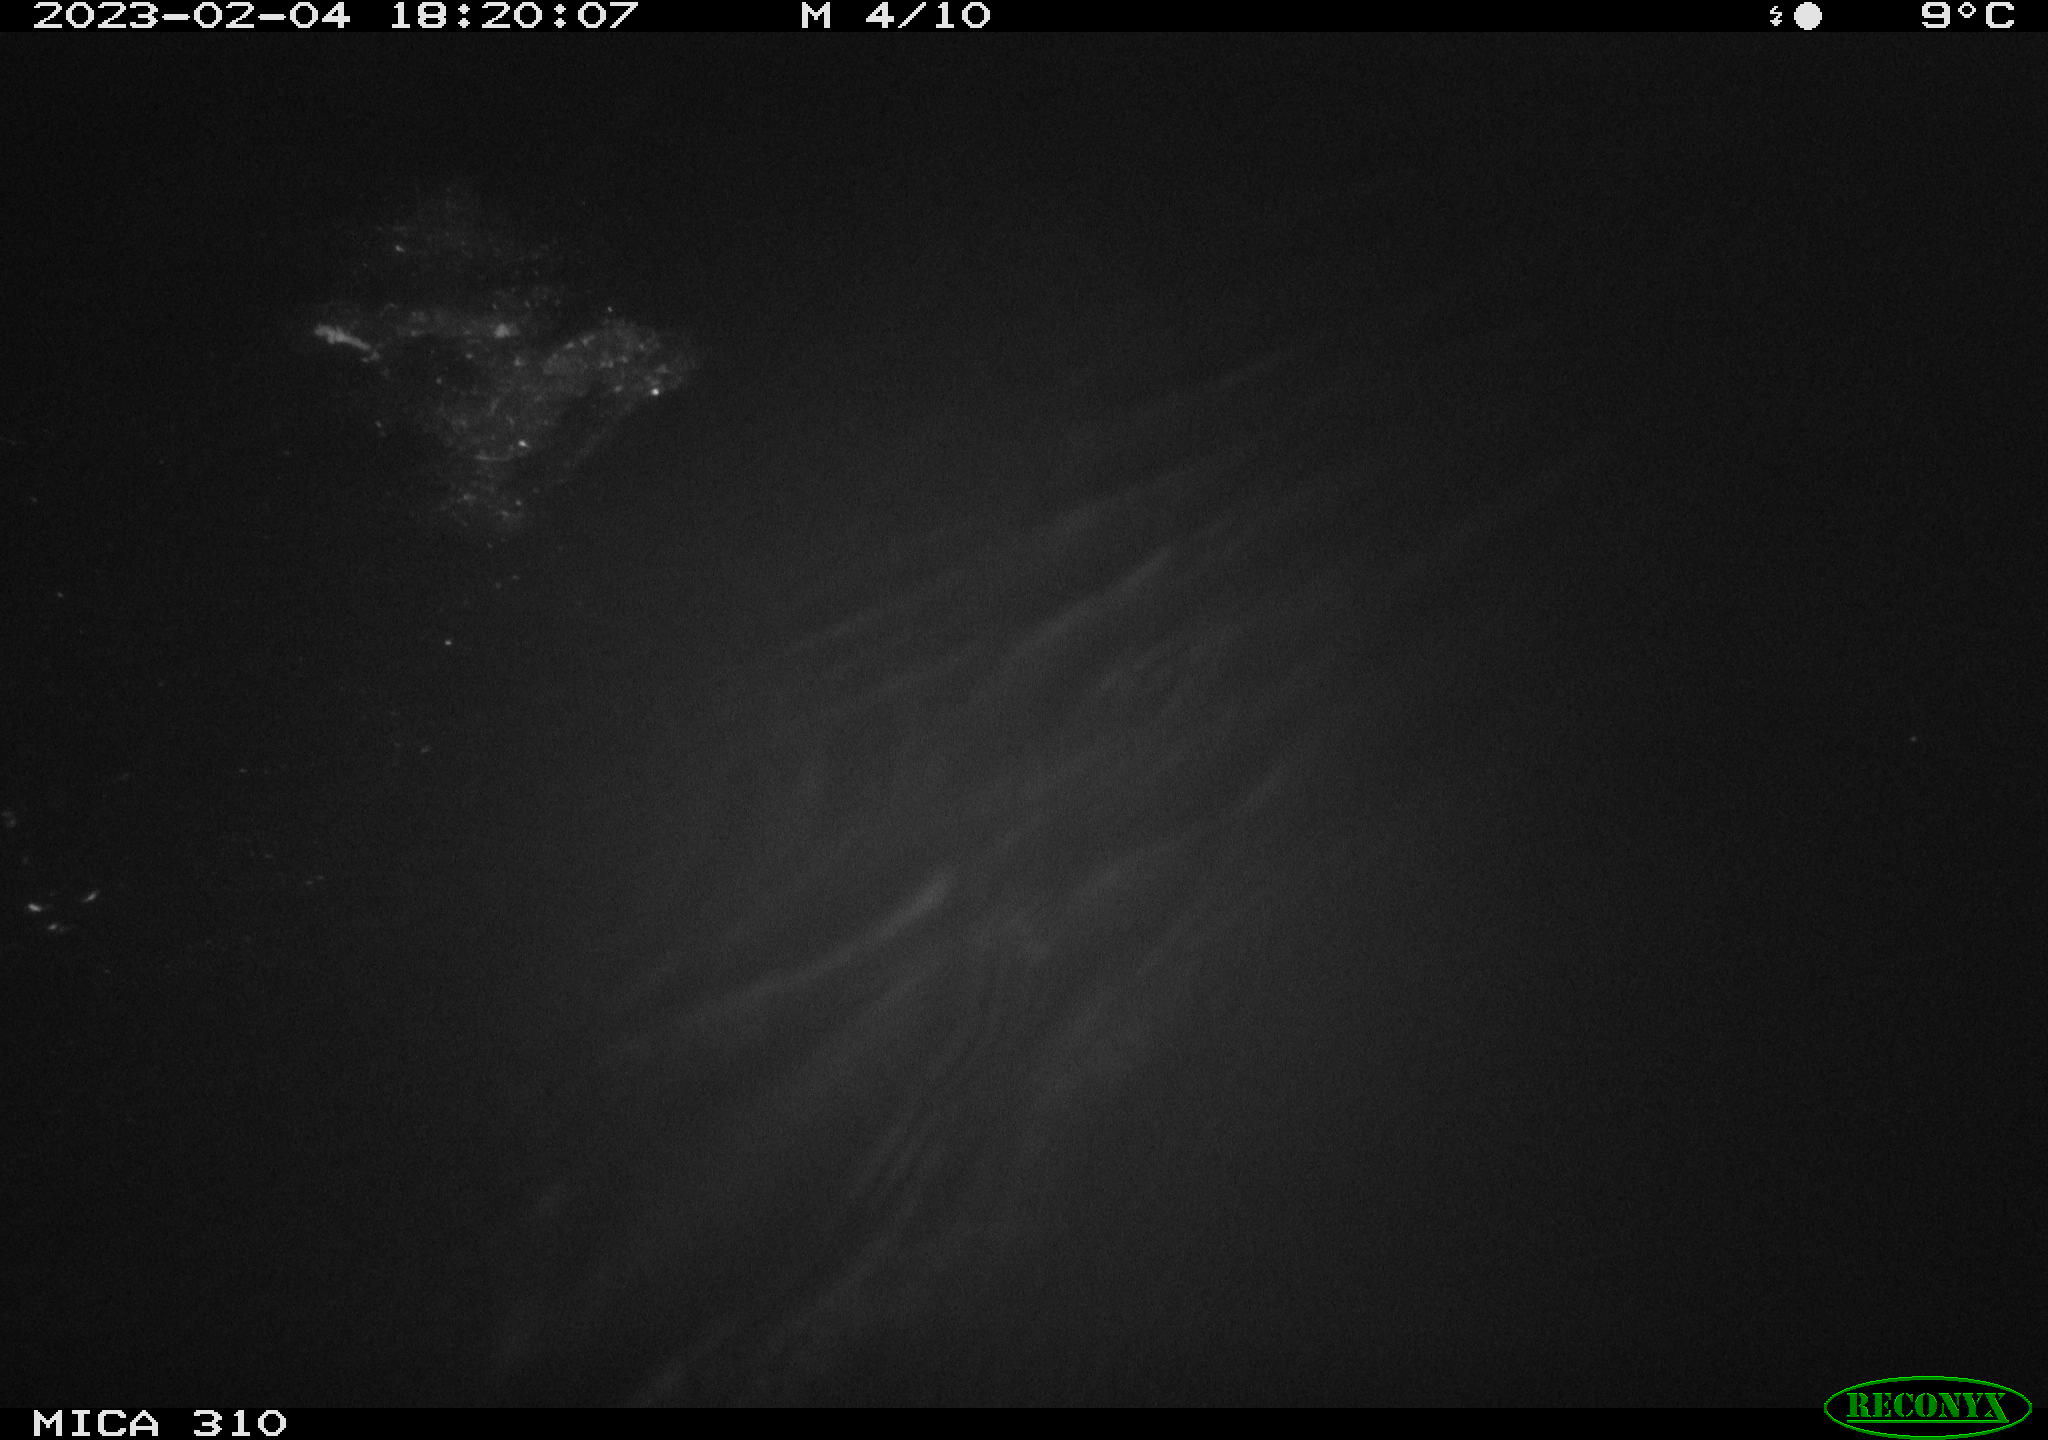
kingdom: Animalia
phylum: Chordata
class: Aves
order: Anseriformes
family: Anatidae
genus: Anas
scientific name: Anas
